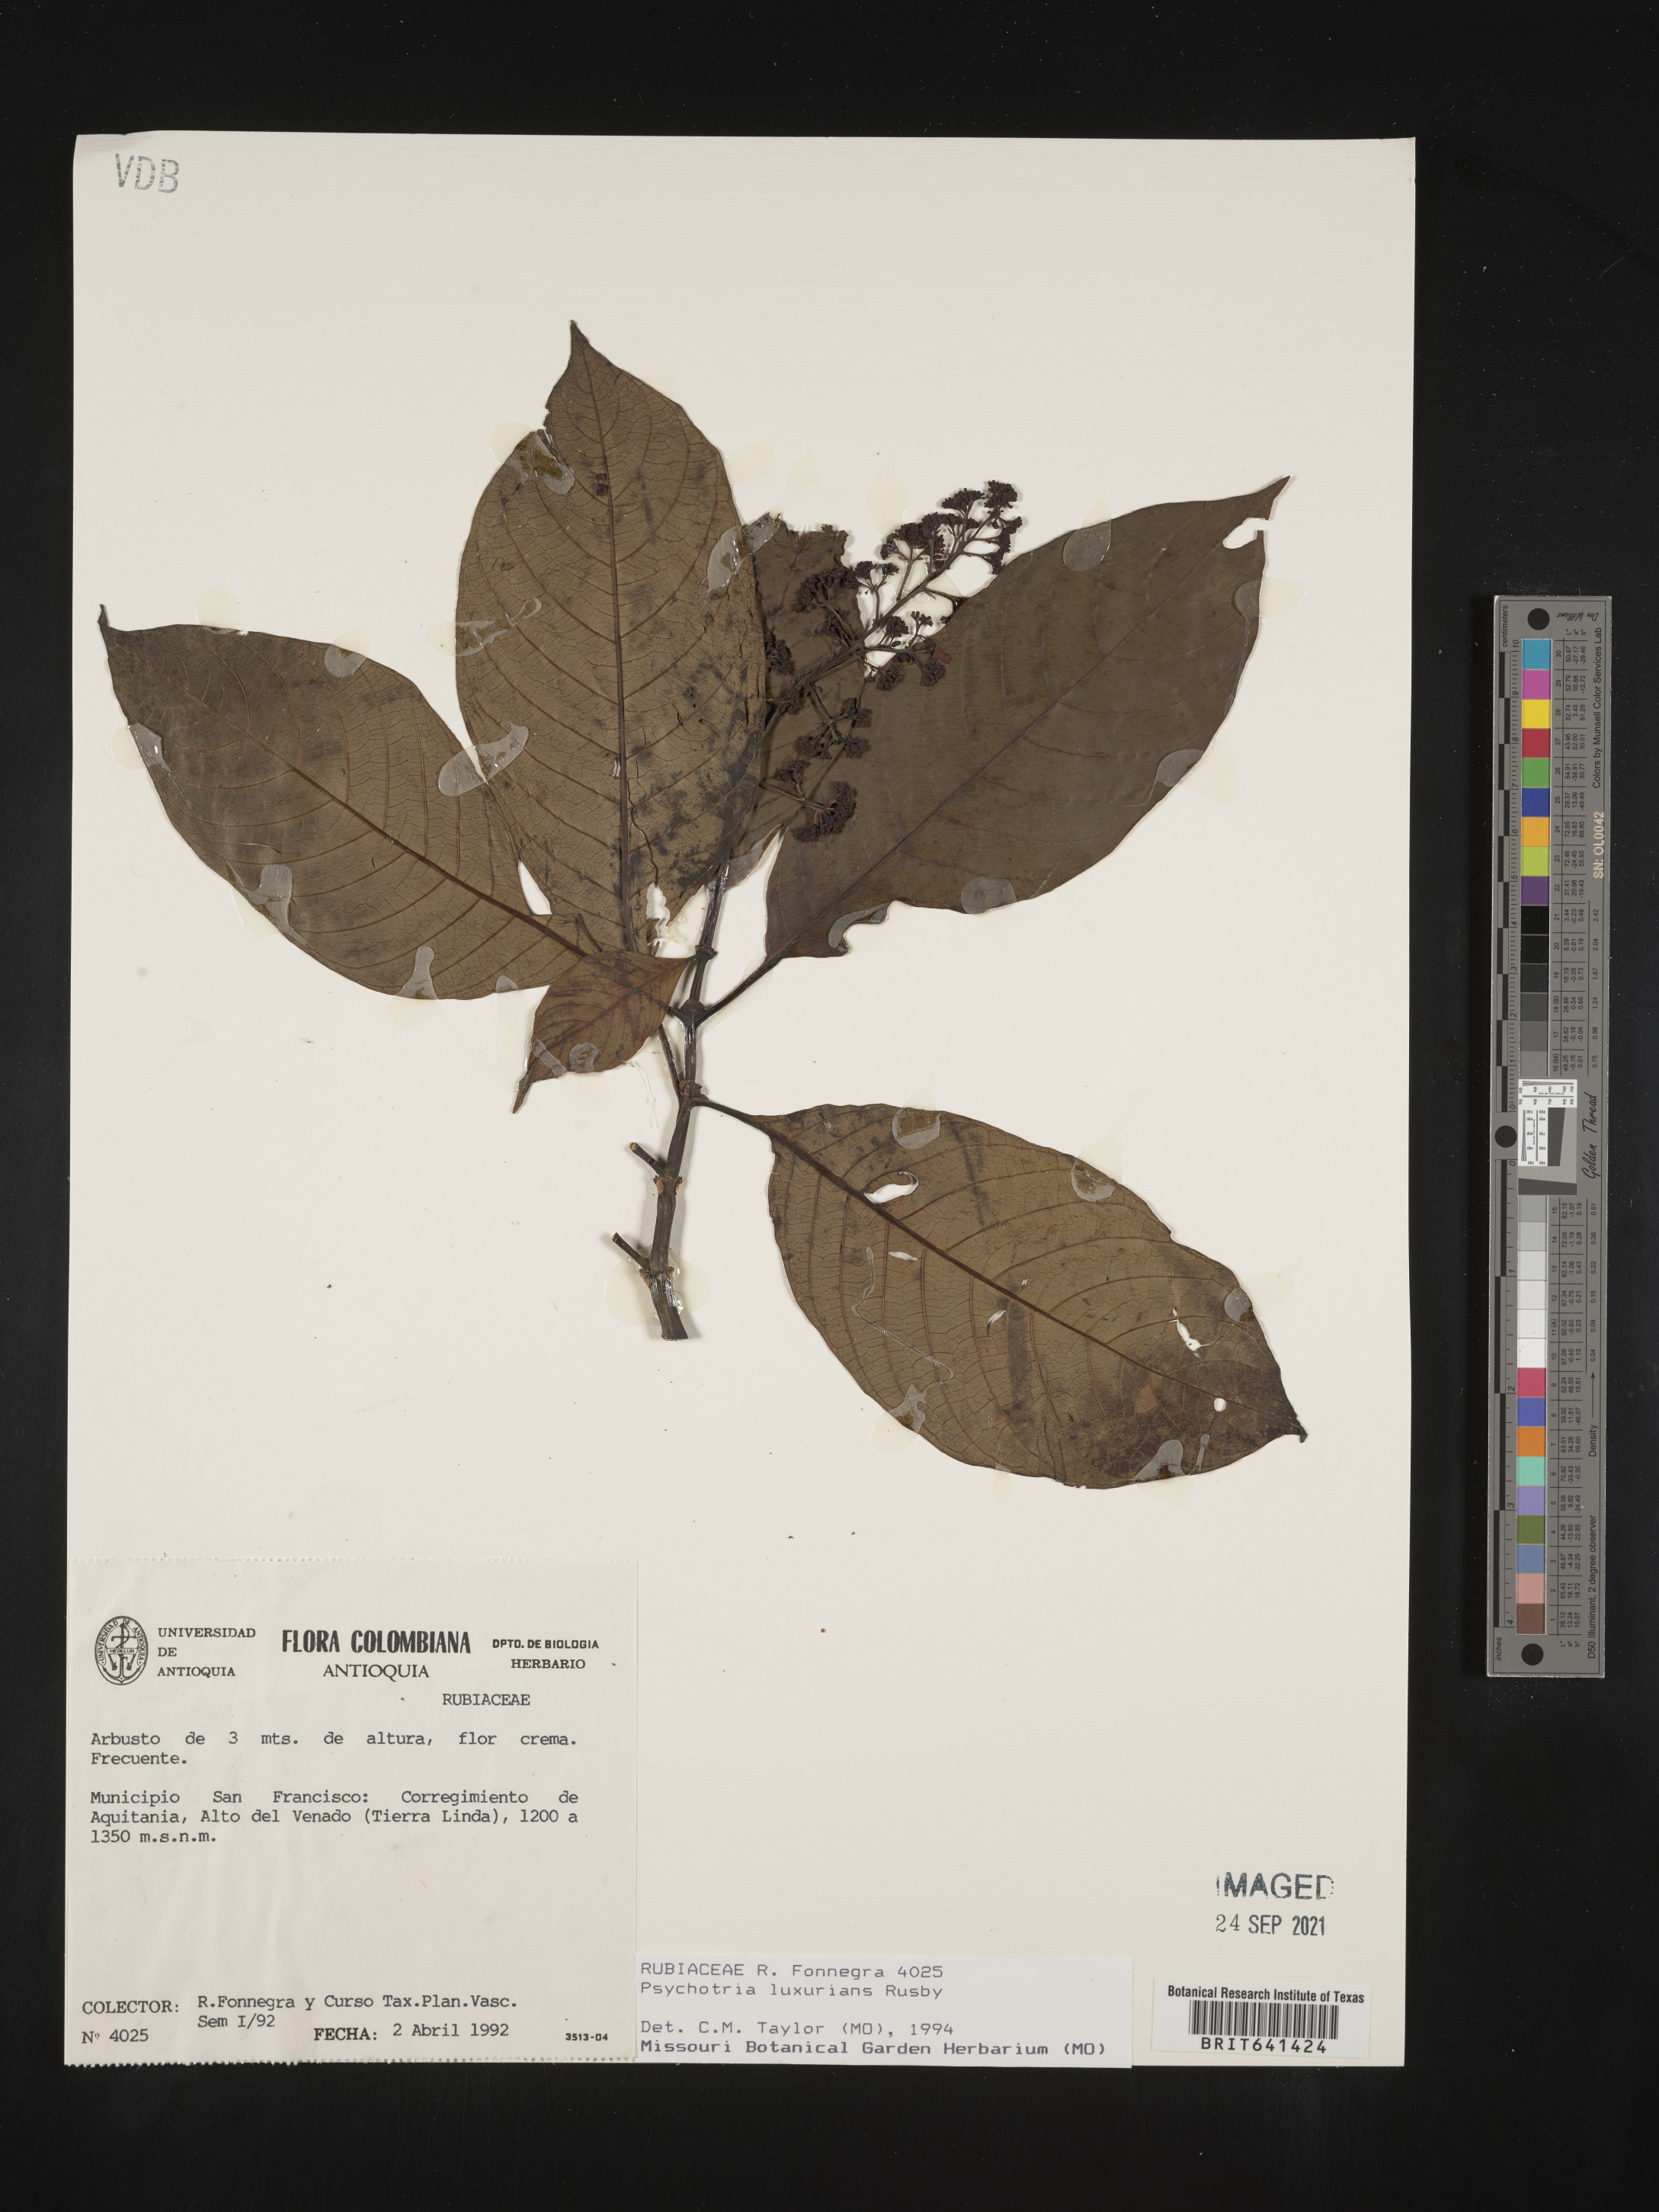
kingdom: Plantae
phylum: Tracheophyta
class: Magnoliopsida
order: Gentianales
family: Rubiaceae
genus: Psychotria
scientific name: Psychotria
